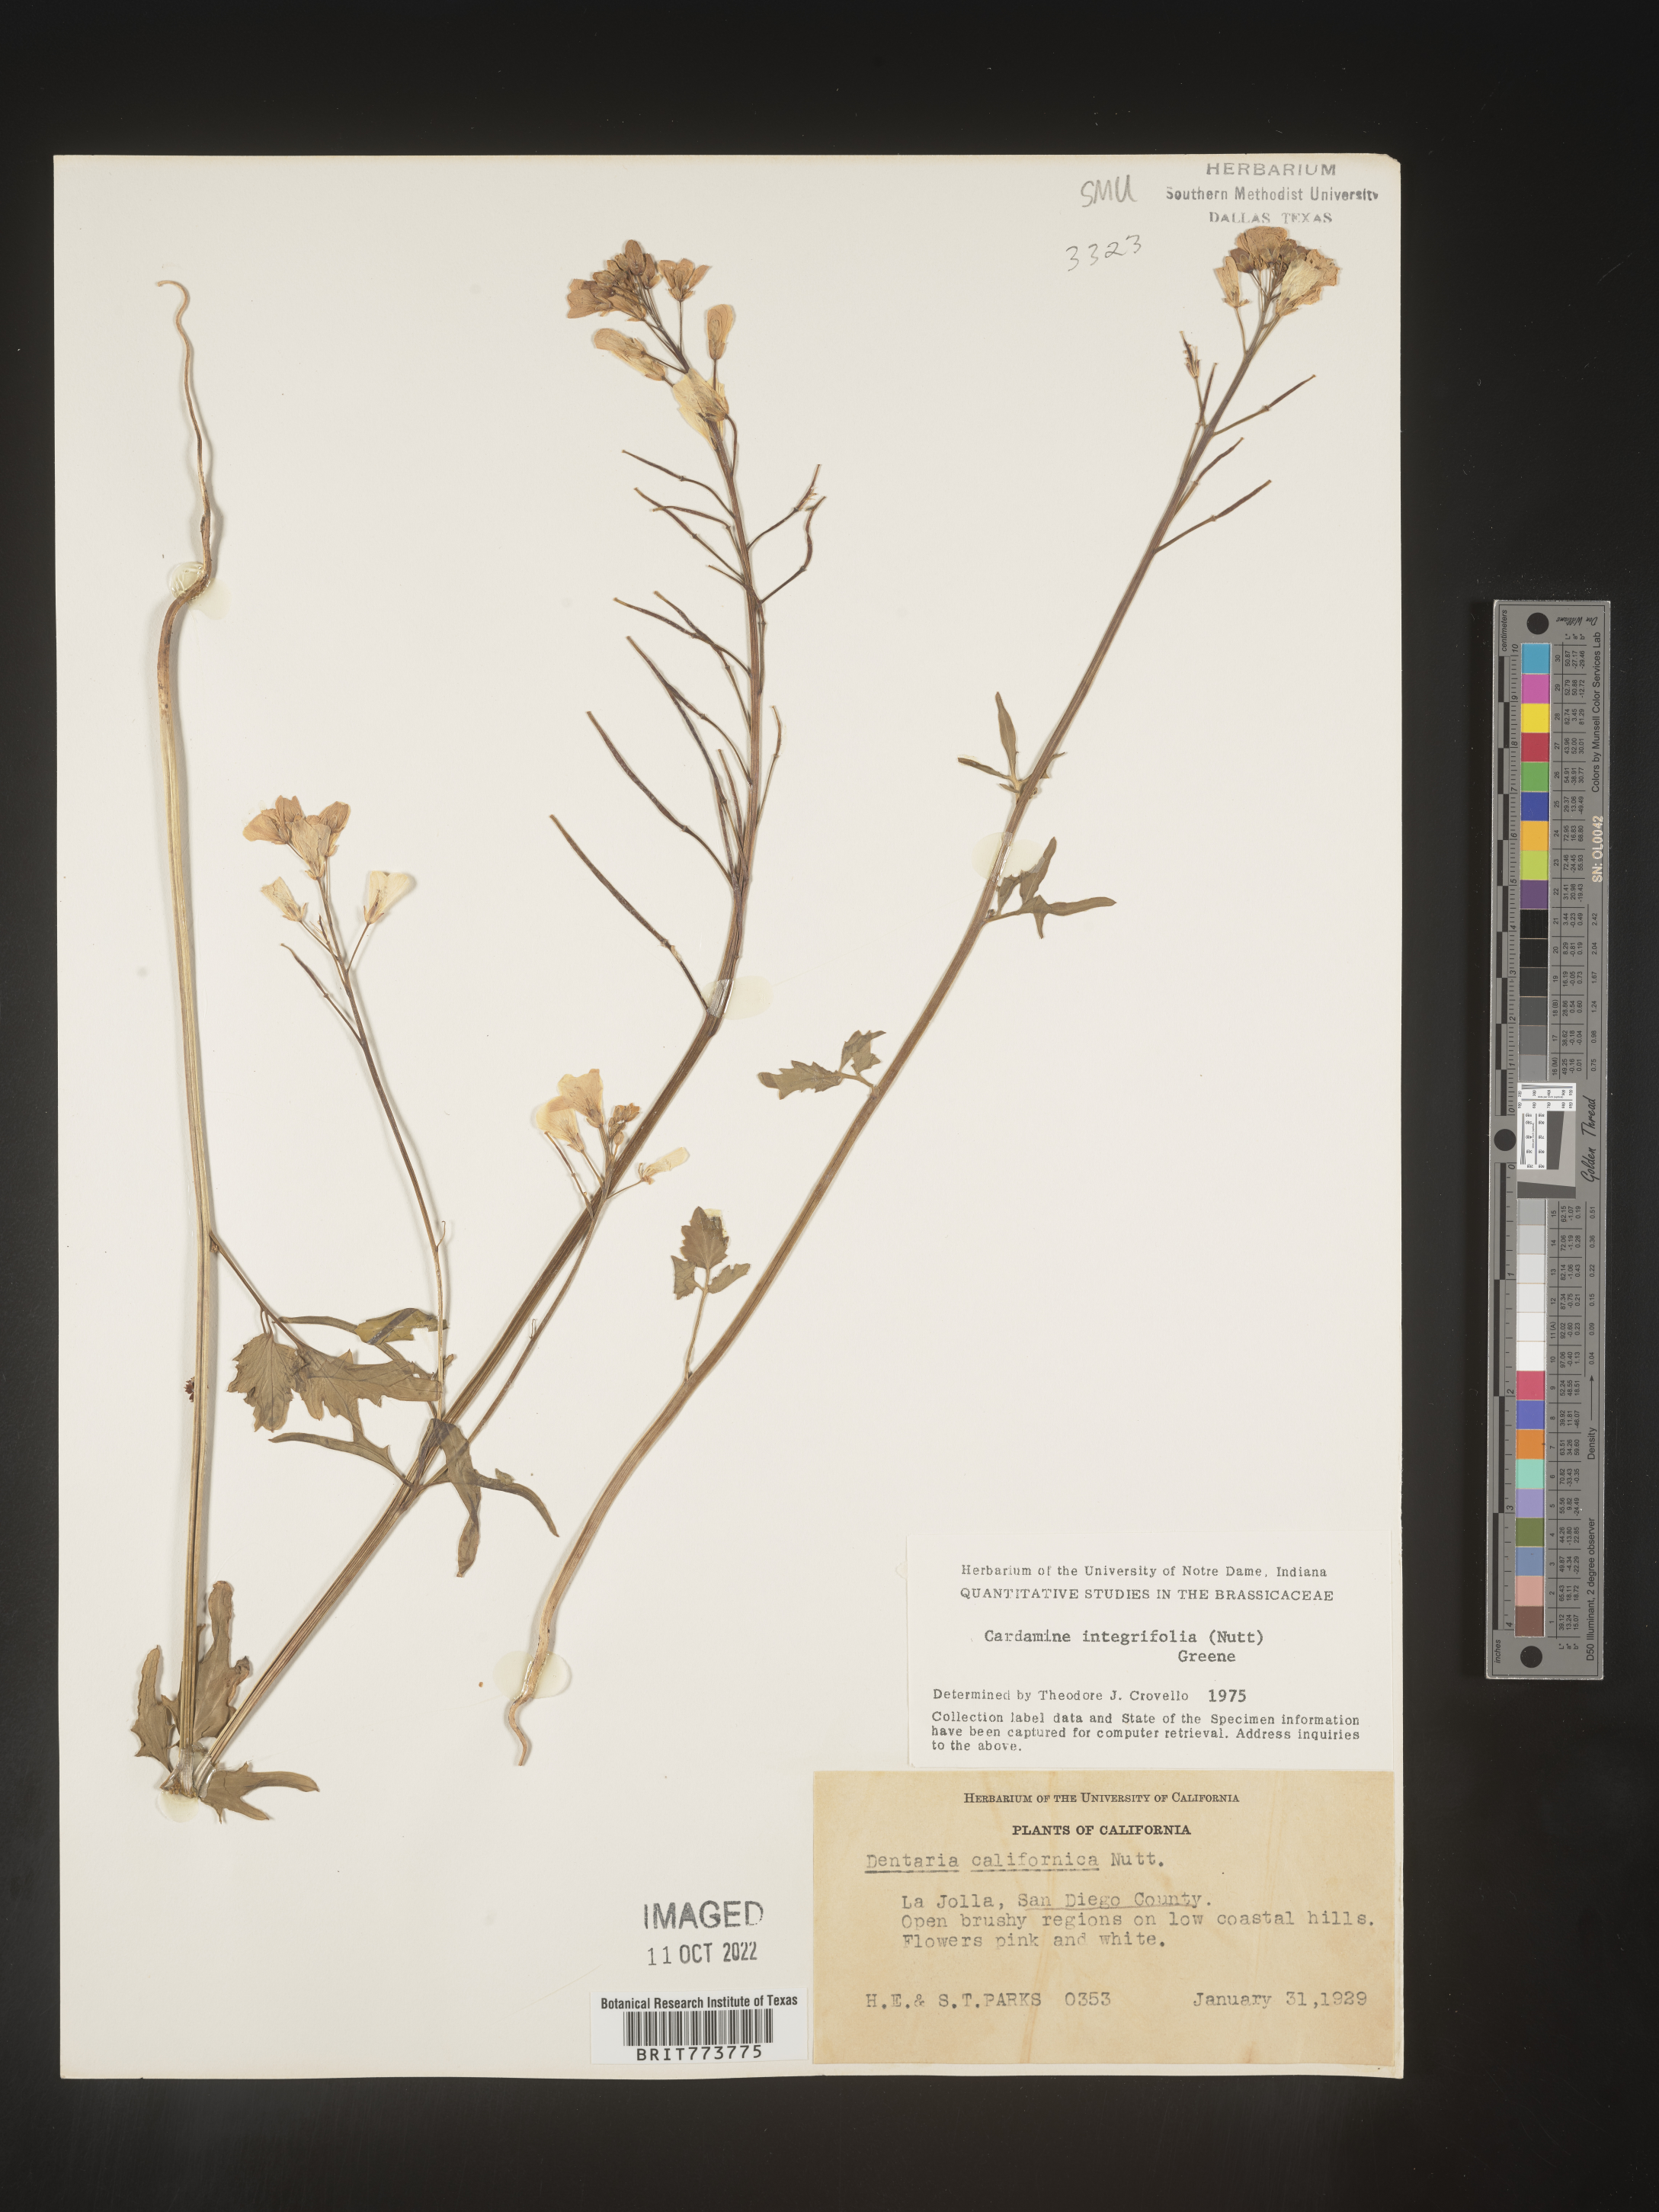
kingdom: Plantae
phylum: Tracheophyta
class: Magnoliopsida
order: Brassicales
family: Brassicaceae
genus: Cardamine
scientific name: Cardamine bellidifolia
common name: Alpine bittercress
